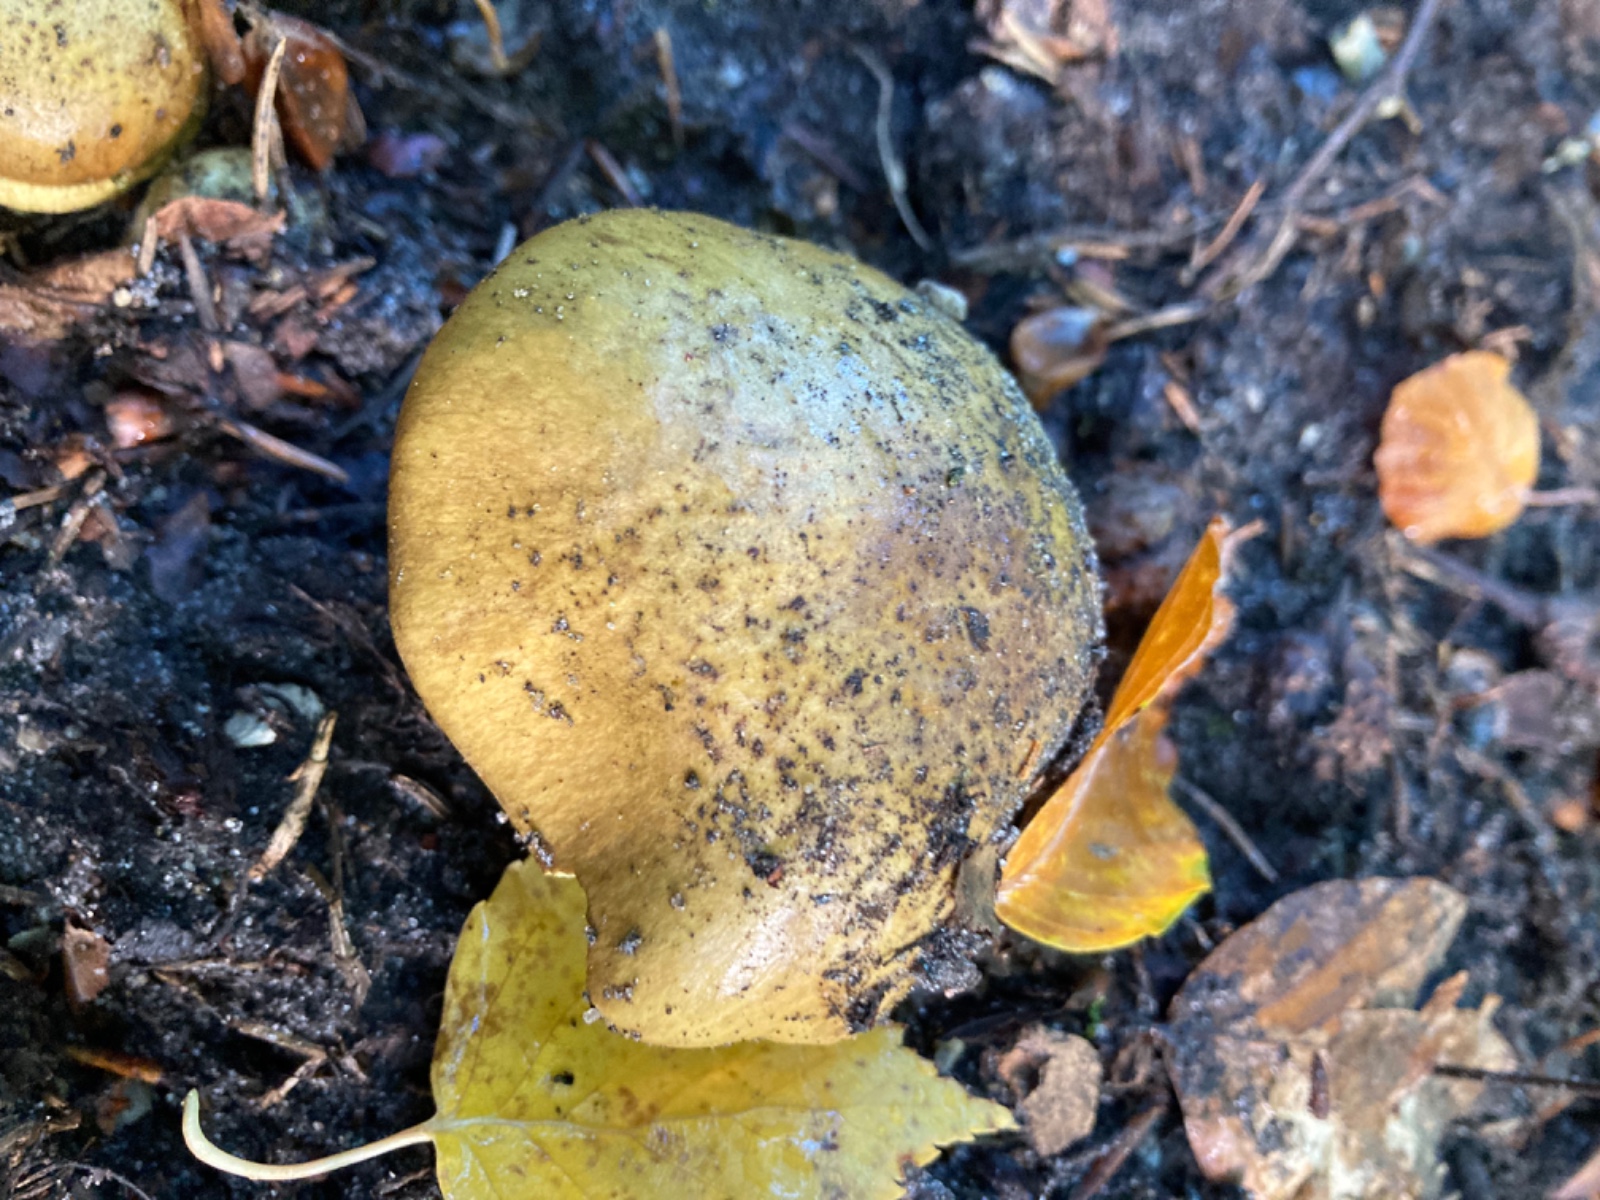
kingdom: Fungi
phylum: Basidiomycota
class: Agaricomycetes
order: Agaricales
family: Cortinariaceae
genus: Calonarius
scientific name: Calonarius citrinus
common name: citrongul slørhat
